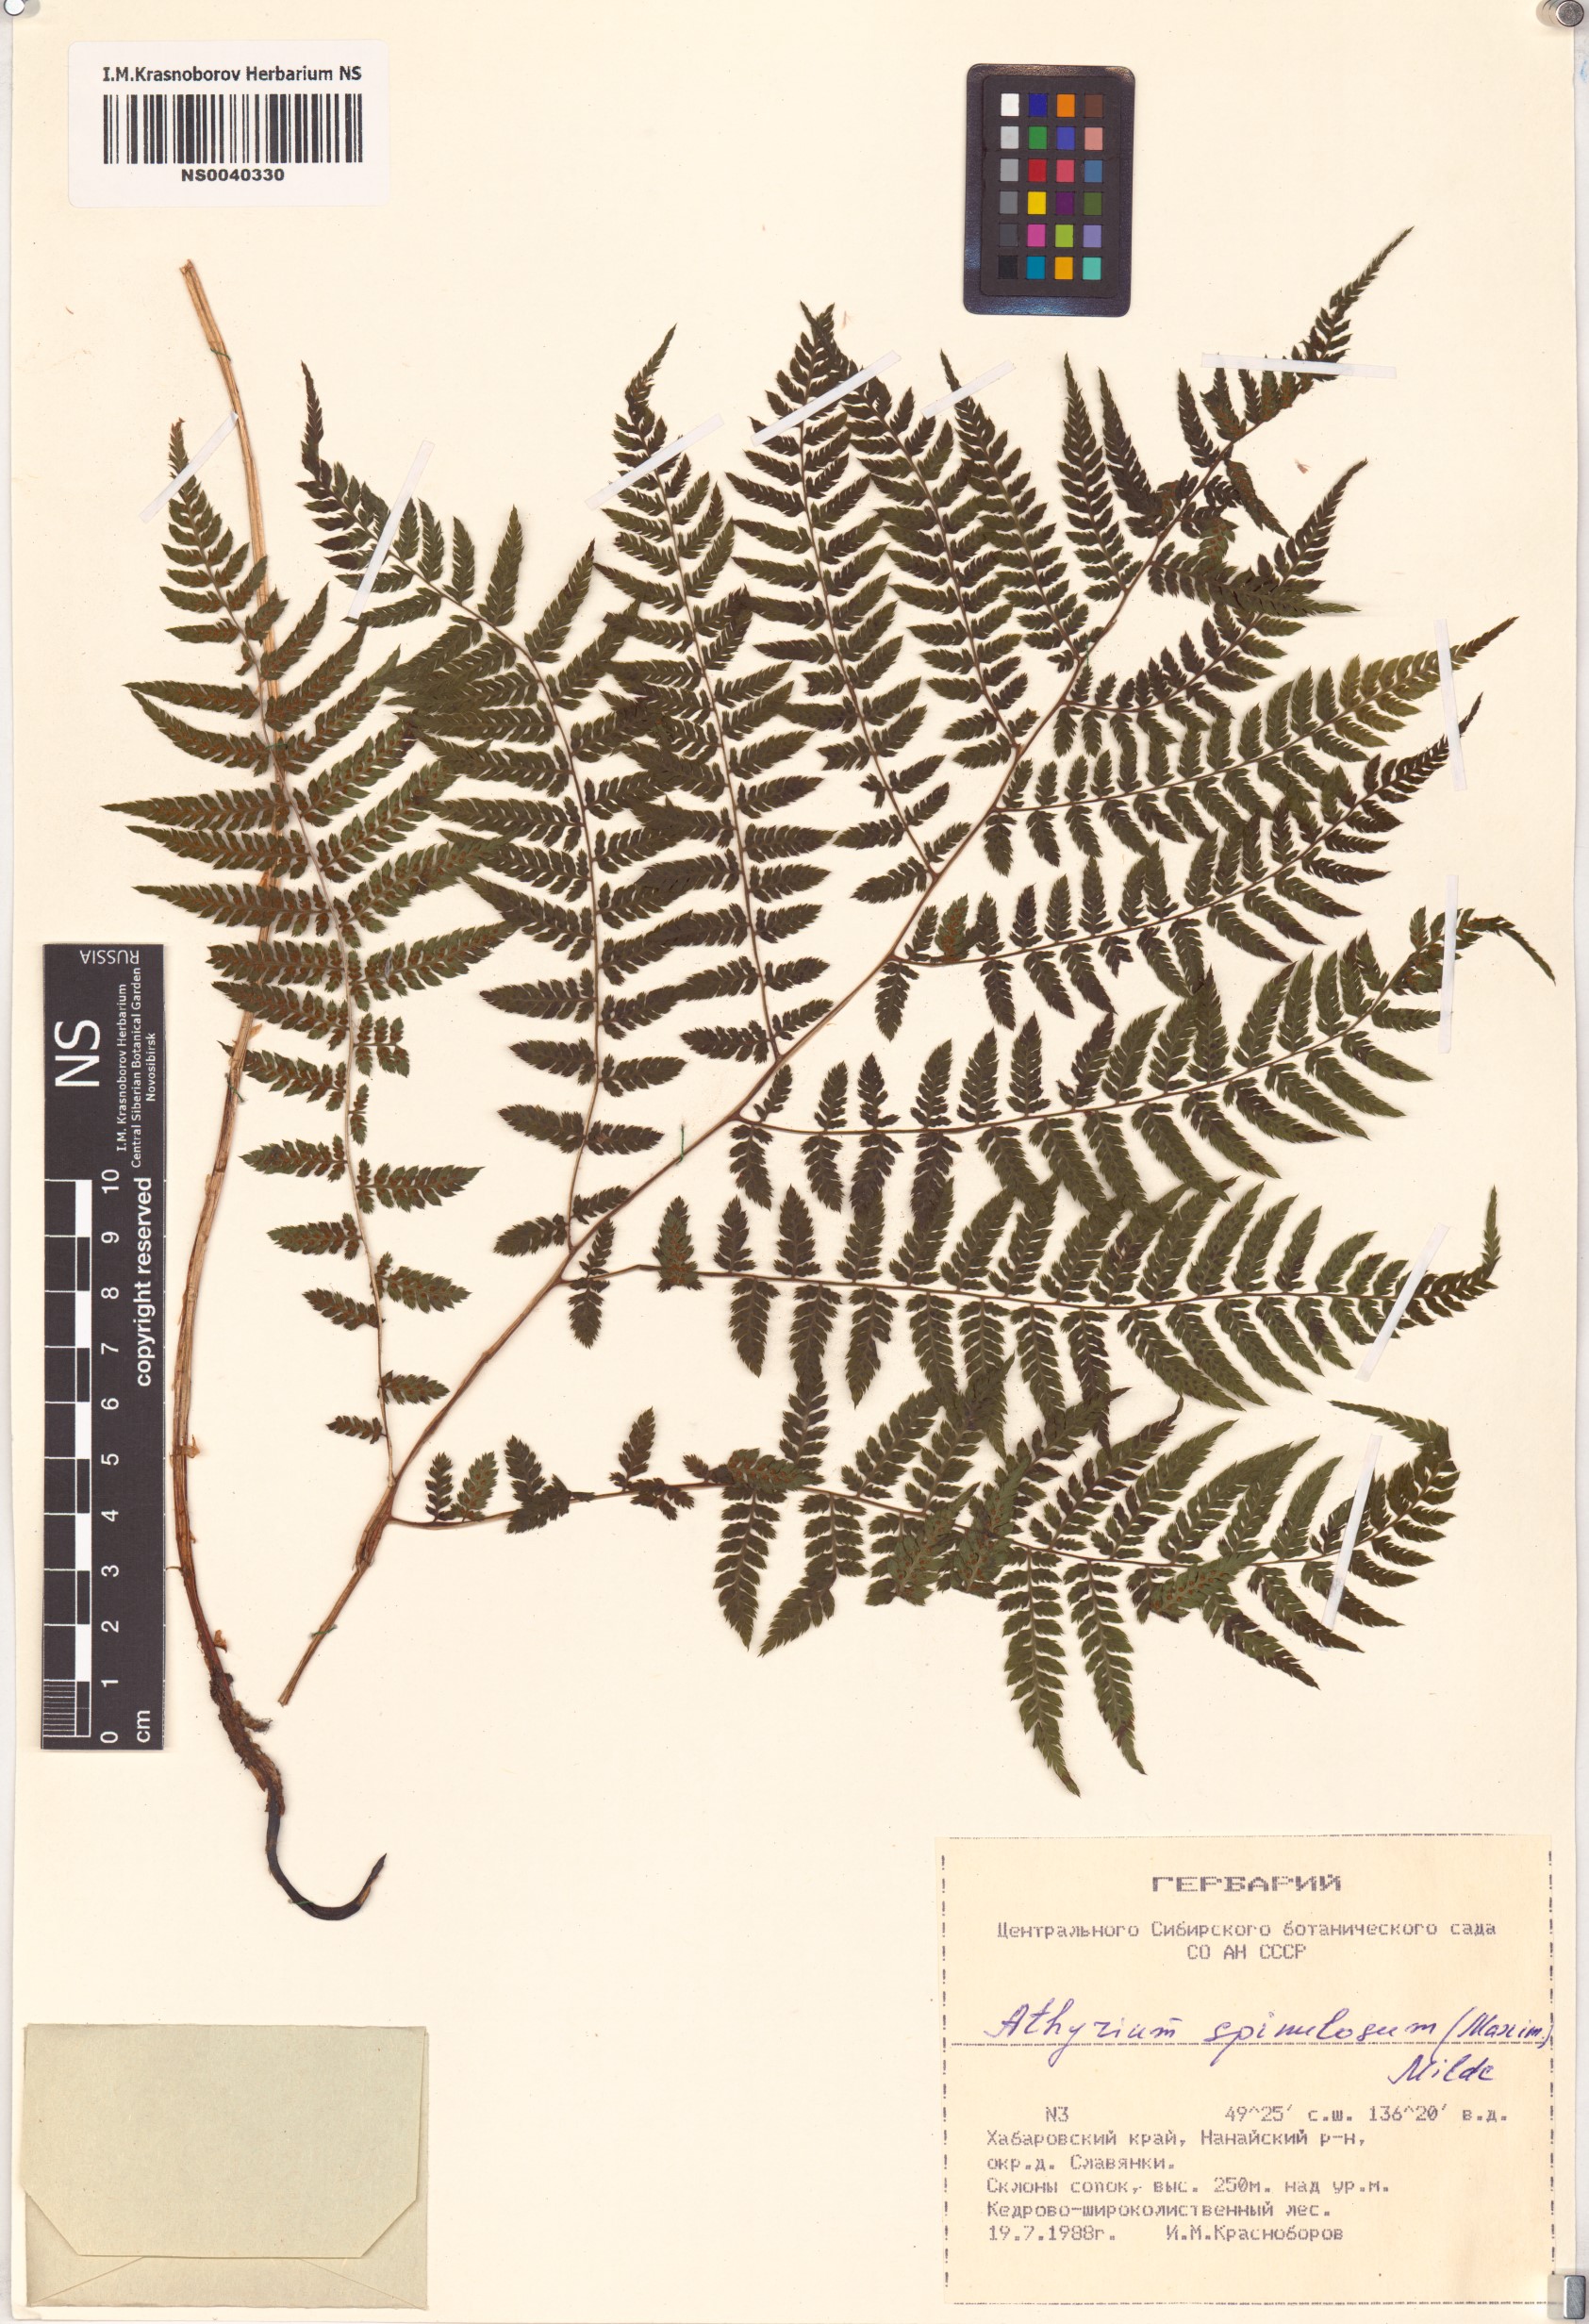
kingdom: Plantae
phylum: Tracheophyta
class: Polypodiopsida
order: Polypodiales
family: Athyriaceae
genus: Athyrium
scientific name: Athyrium spinulosum
